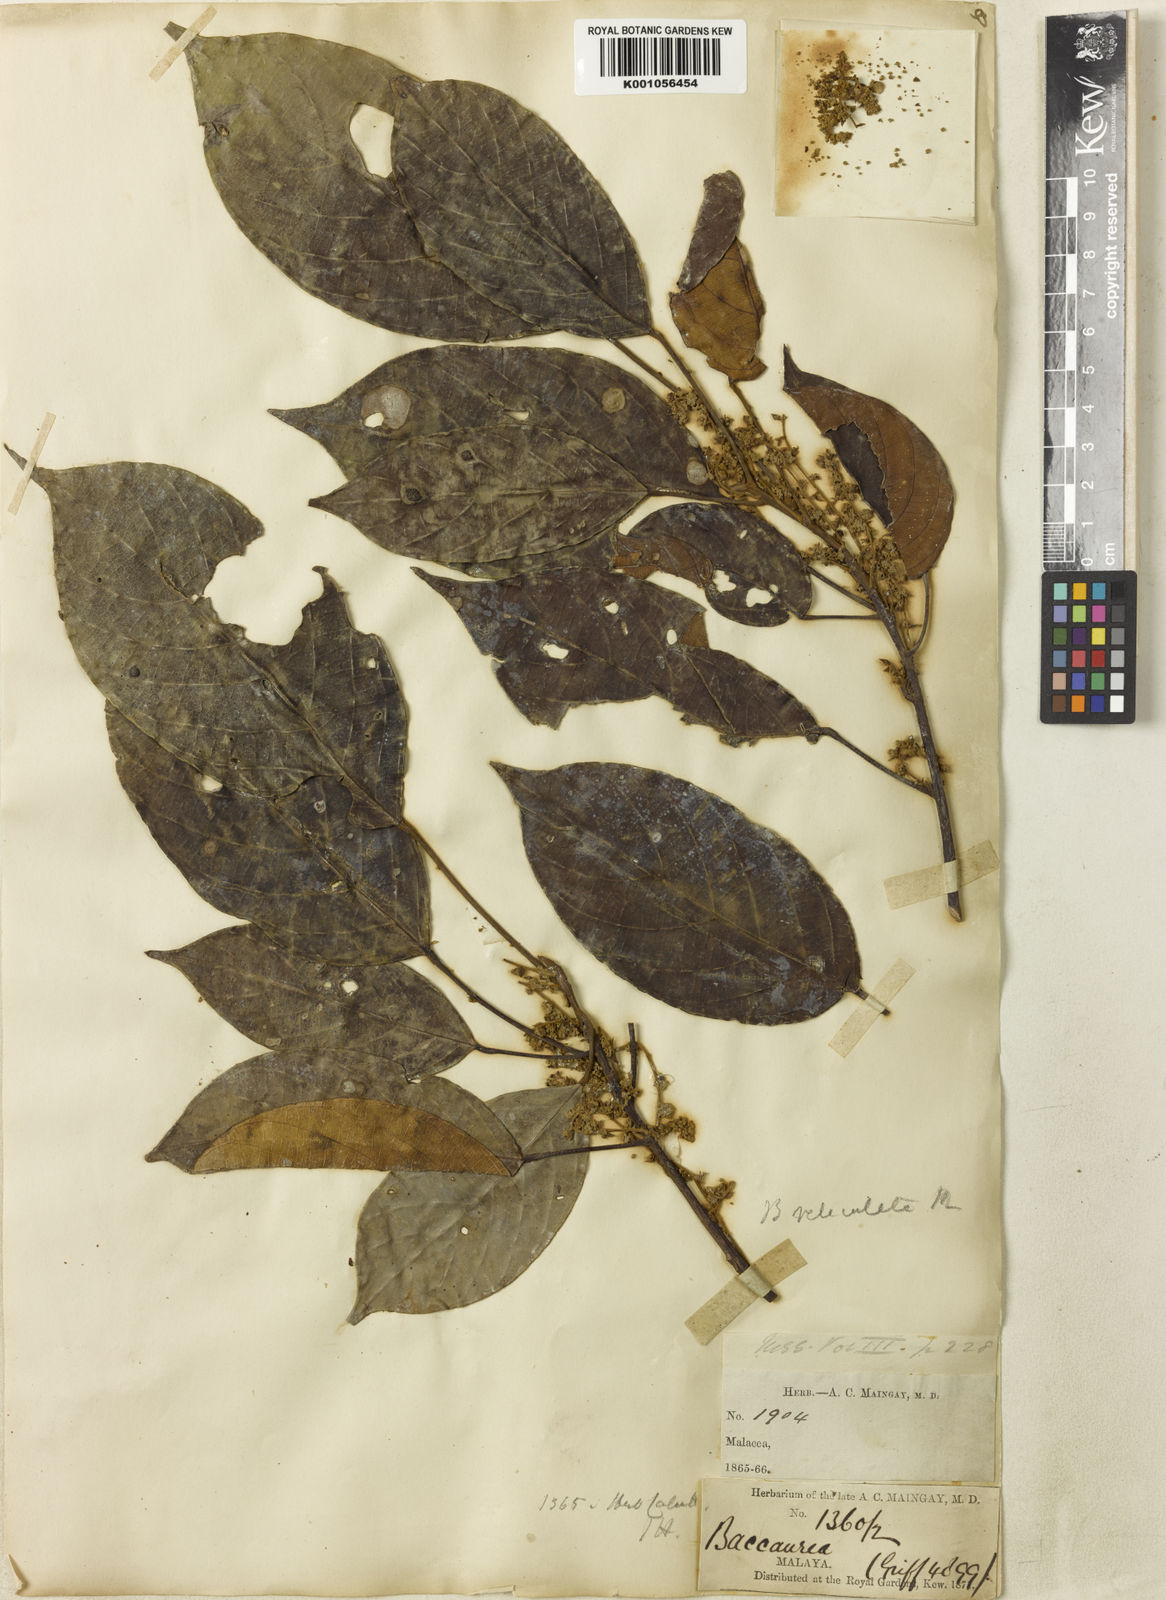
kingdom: Plantae
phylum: Tracheophyta
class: Magnoliopsida
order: Malpighiales
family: Phyllanthaceae
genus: Baccaurea
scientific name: Baccaurea reticulata
